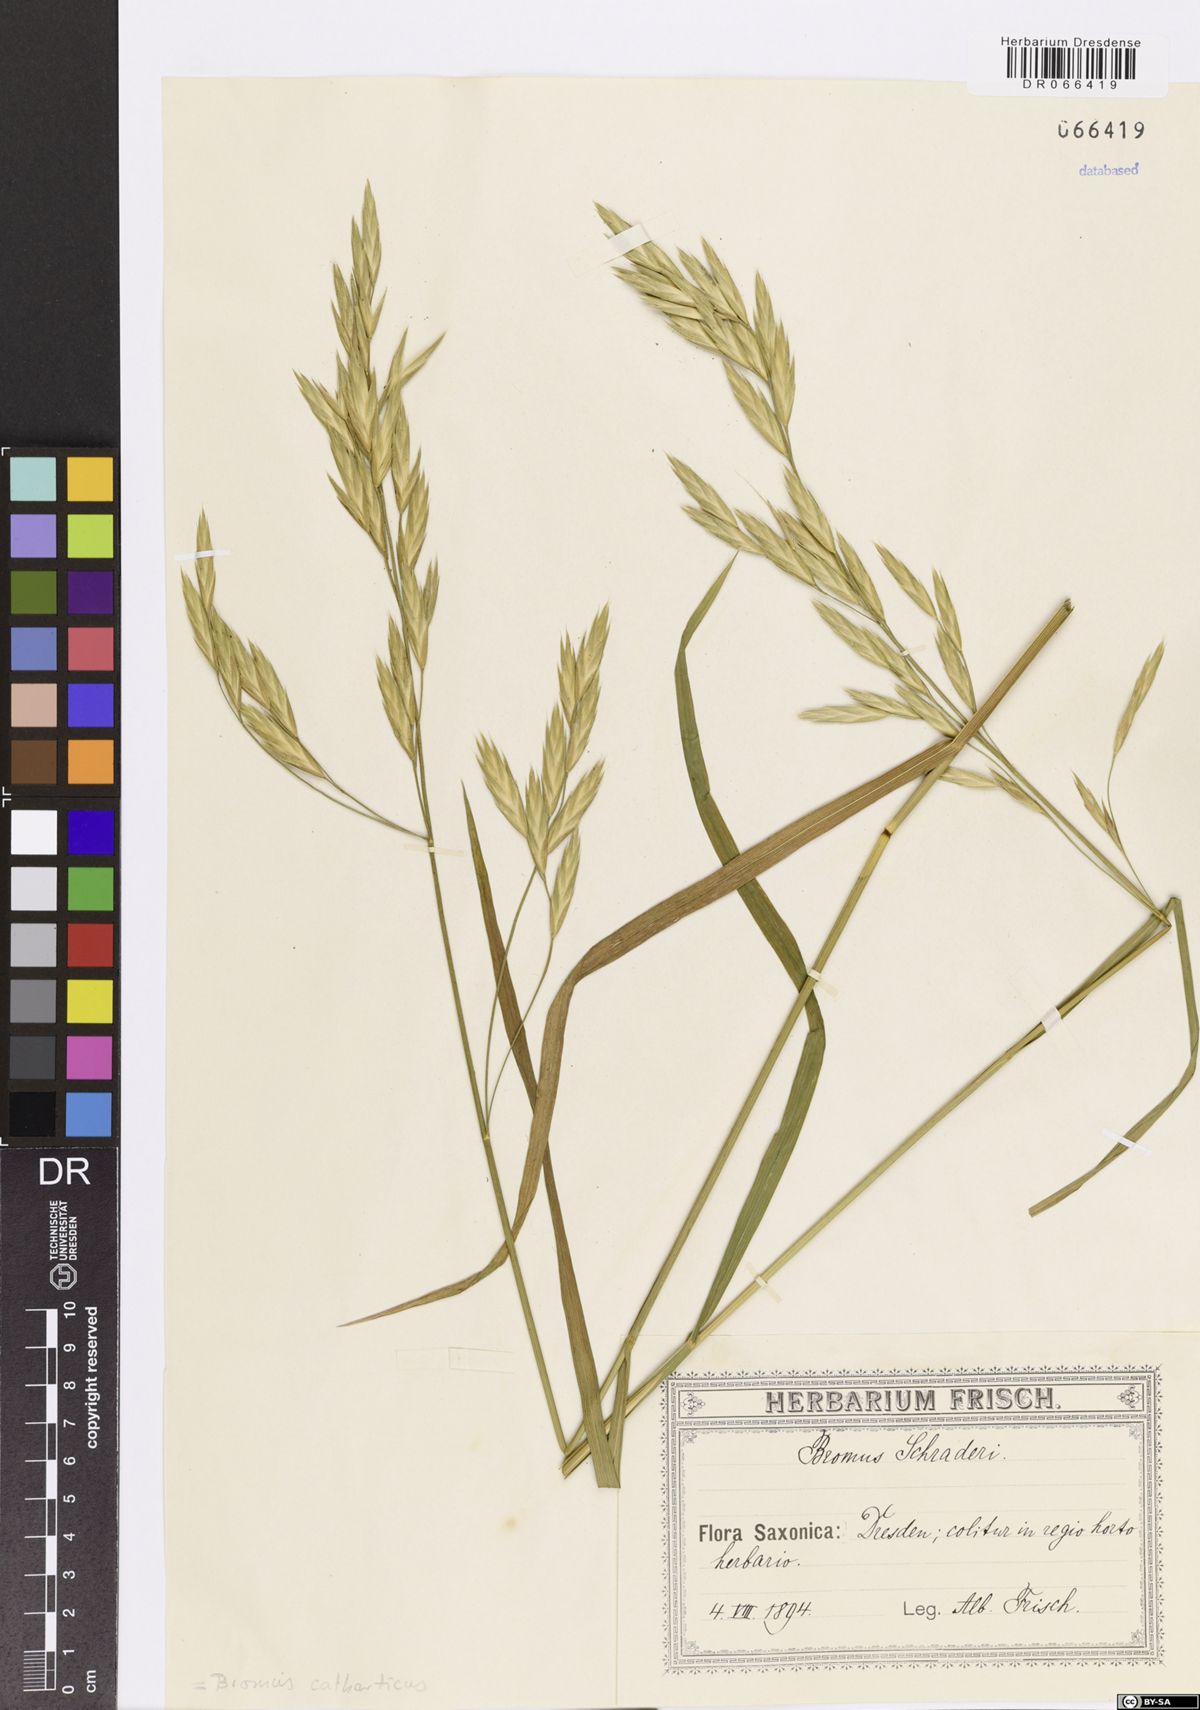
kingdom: Plantae
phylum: Tracheophyta
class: Liliopsida
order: Poales
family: Poaceae
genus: Bromus
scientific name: Bromus catharticus
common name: Rescuegrass
